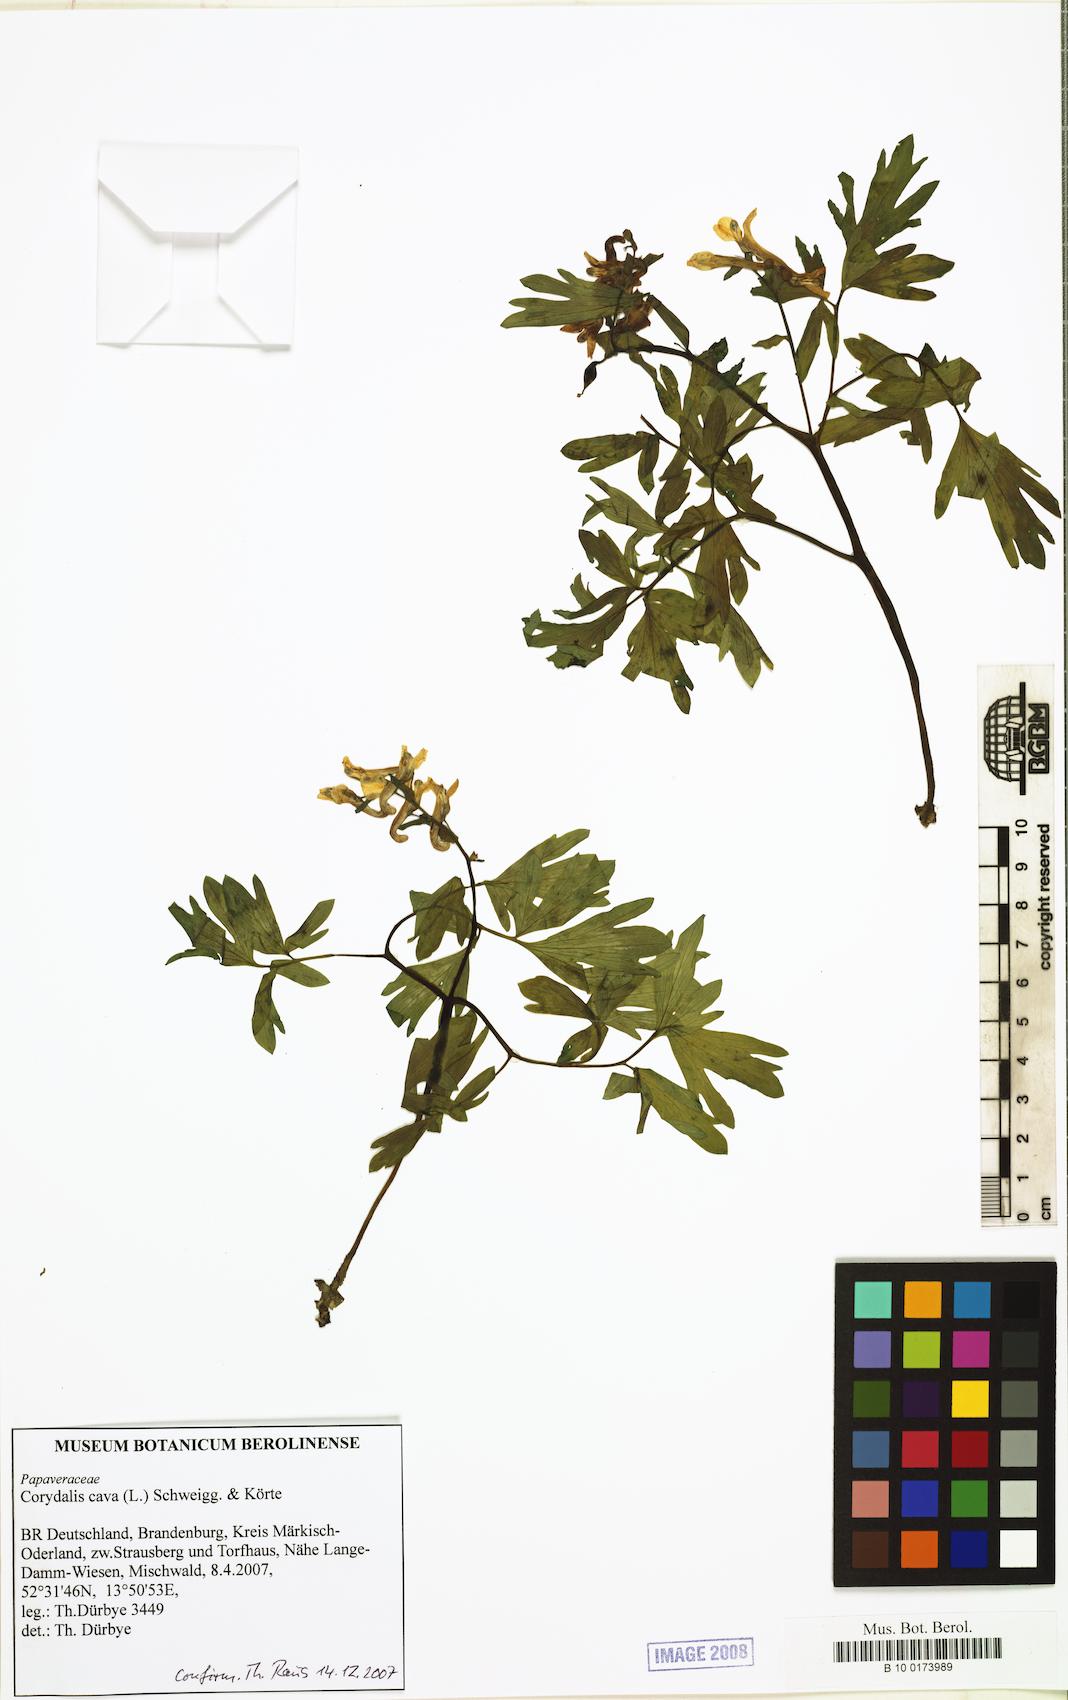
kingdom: Plantae
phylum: Tracheophyta
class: Magnoliopsida
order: Ranunculales
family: Papaveraceae
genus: Corydalis
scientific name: Corydalis cava
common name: Hollowroot
